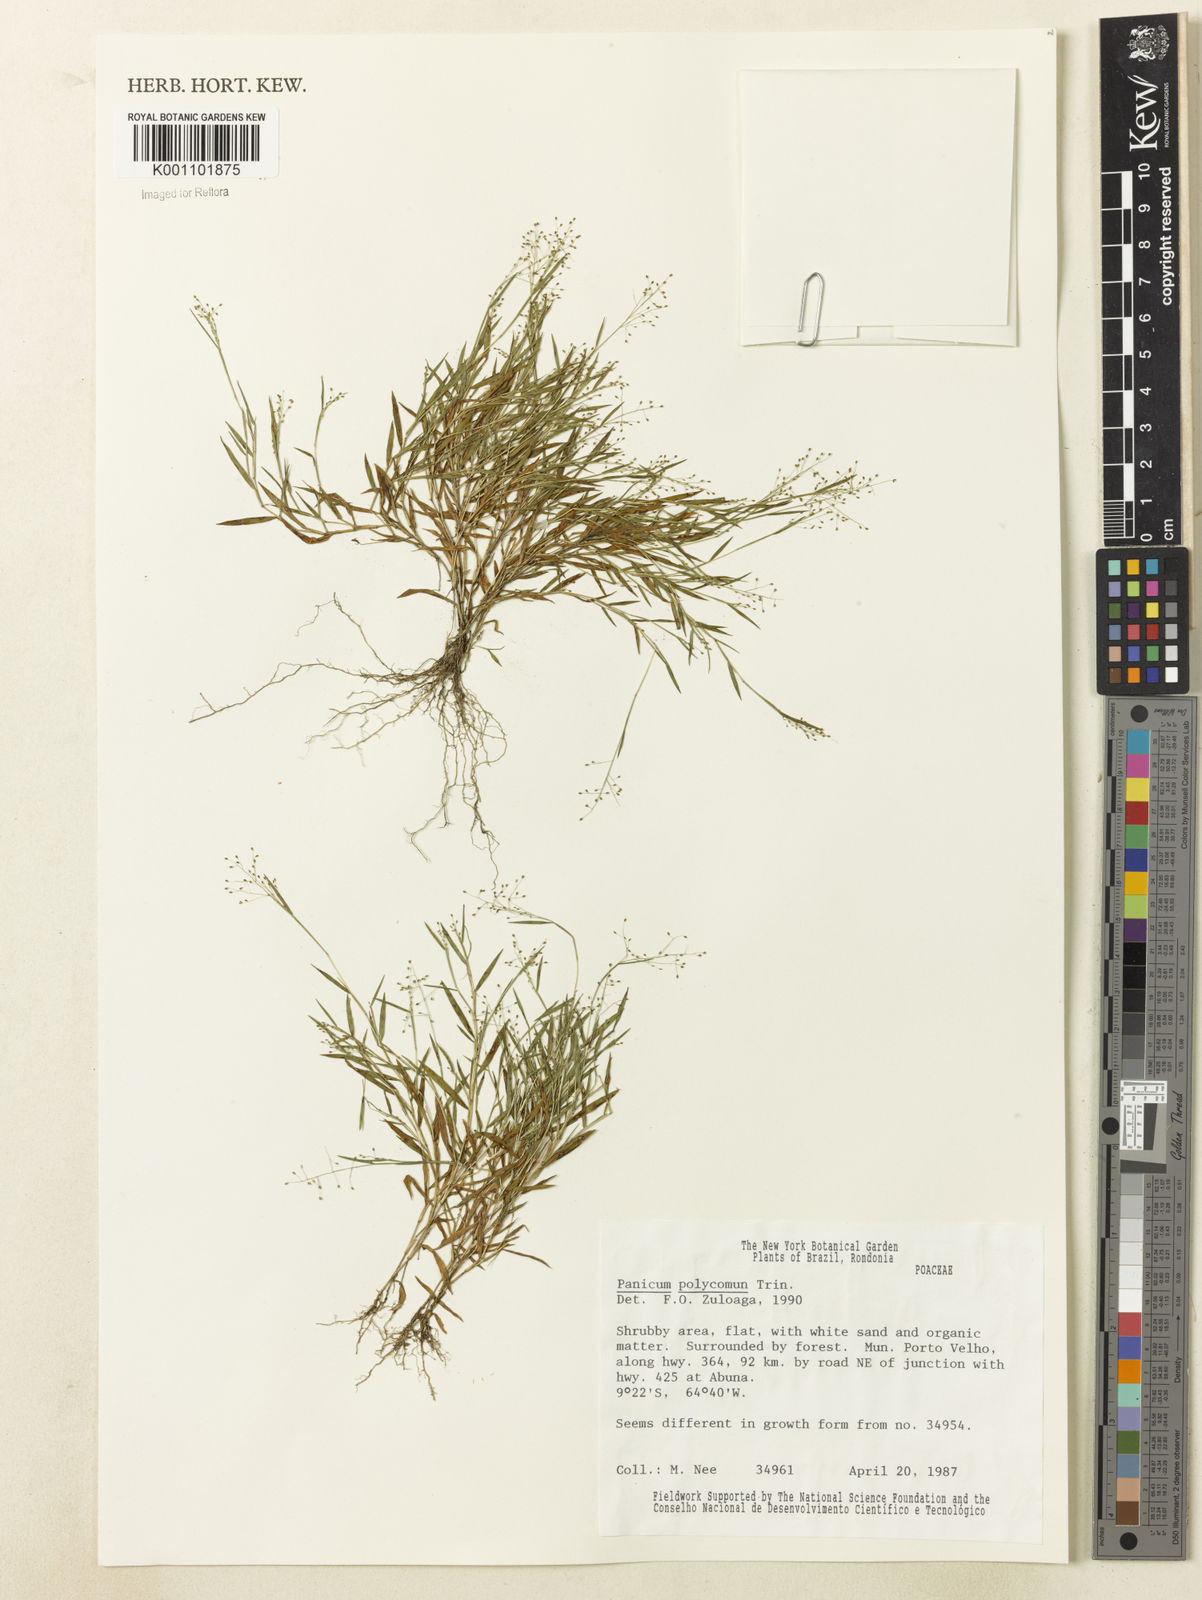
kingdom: Plantae
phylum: Tracheophyta
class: Liliopsida
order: Poales
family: Poaceae
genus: Trichanthecium
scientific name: Trichanthecium polycomum
